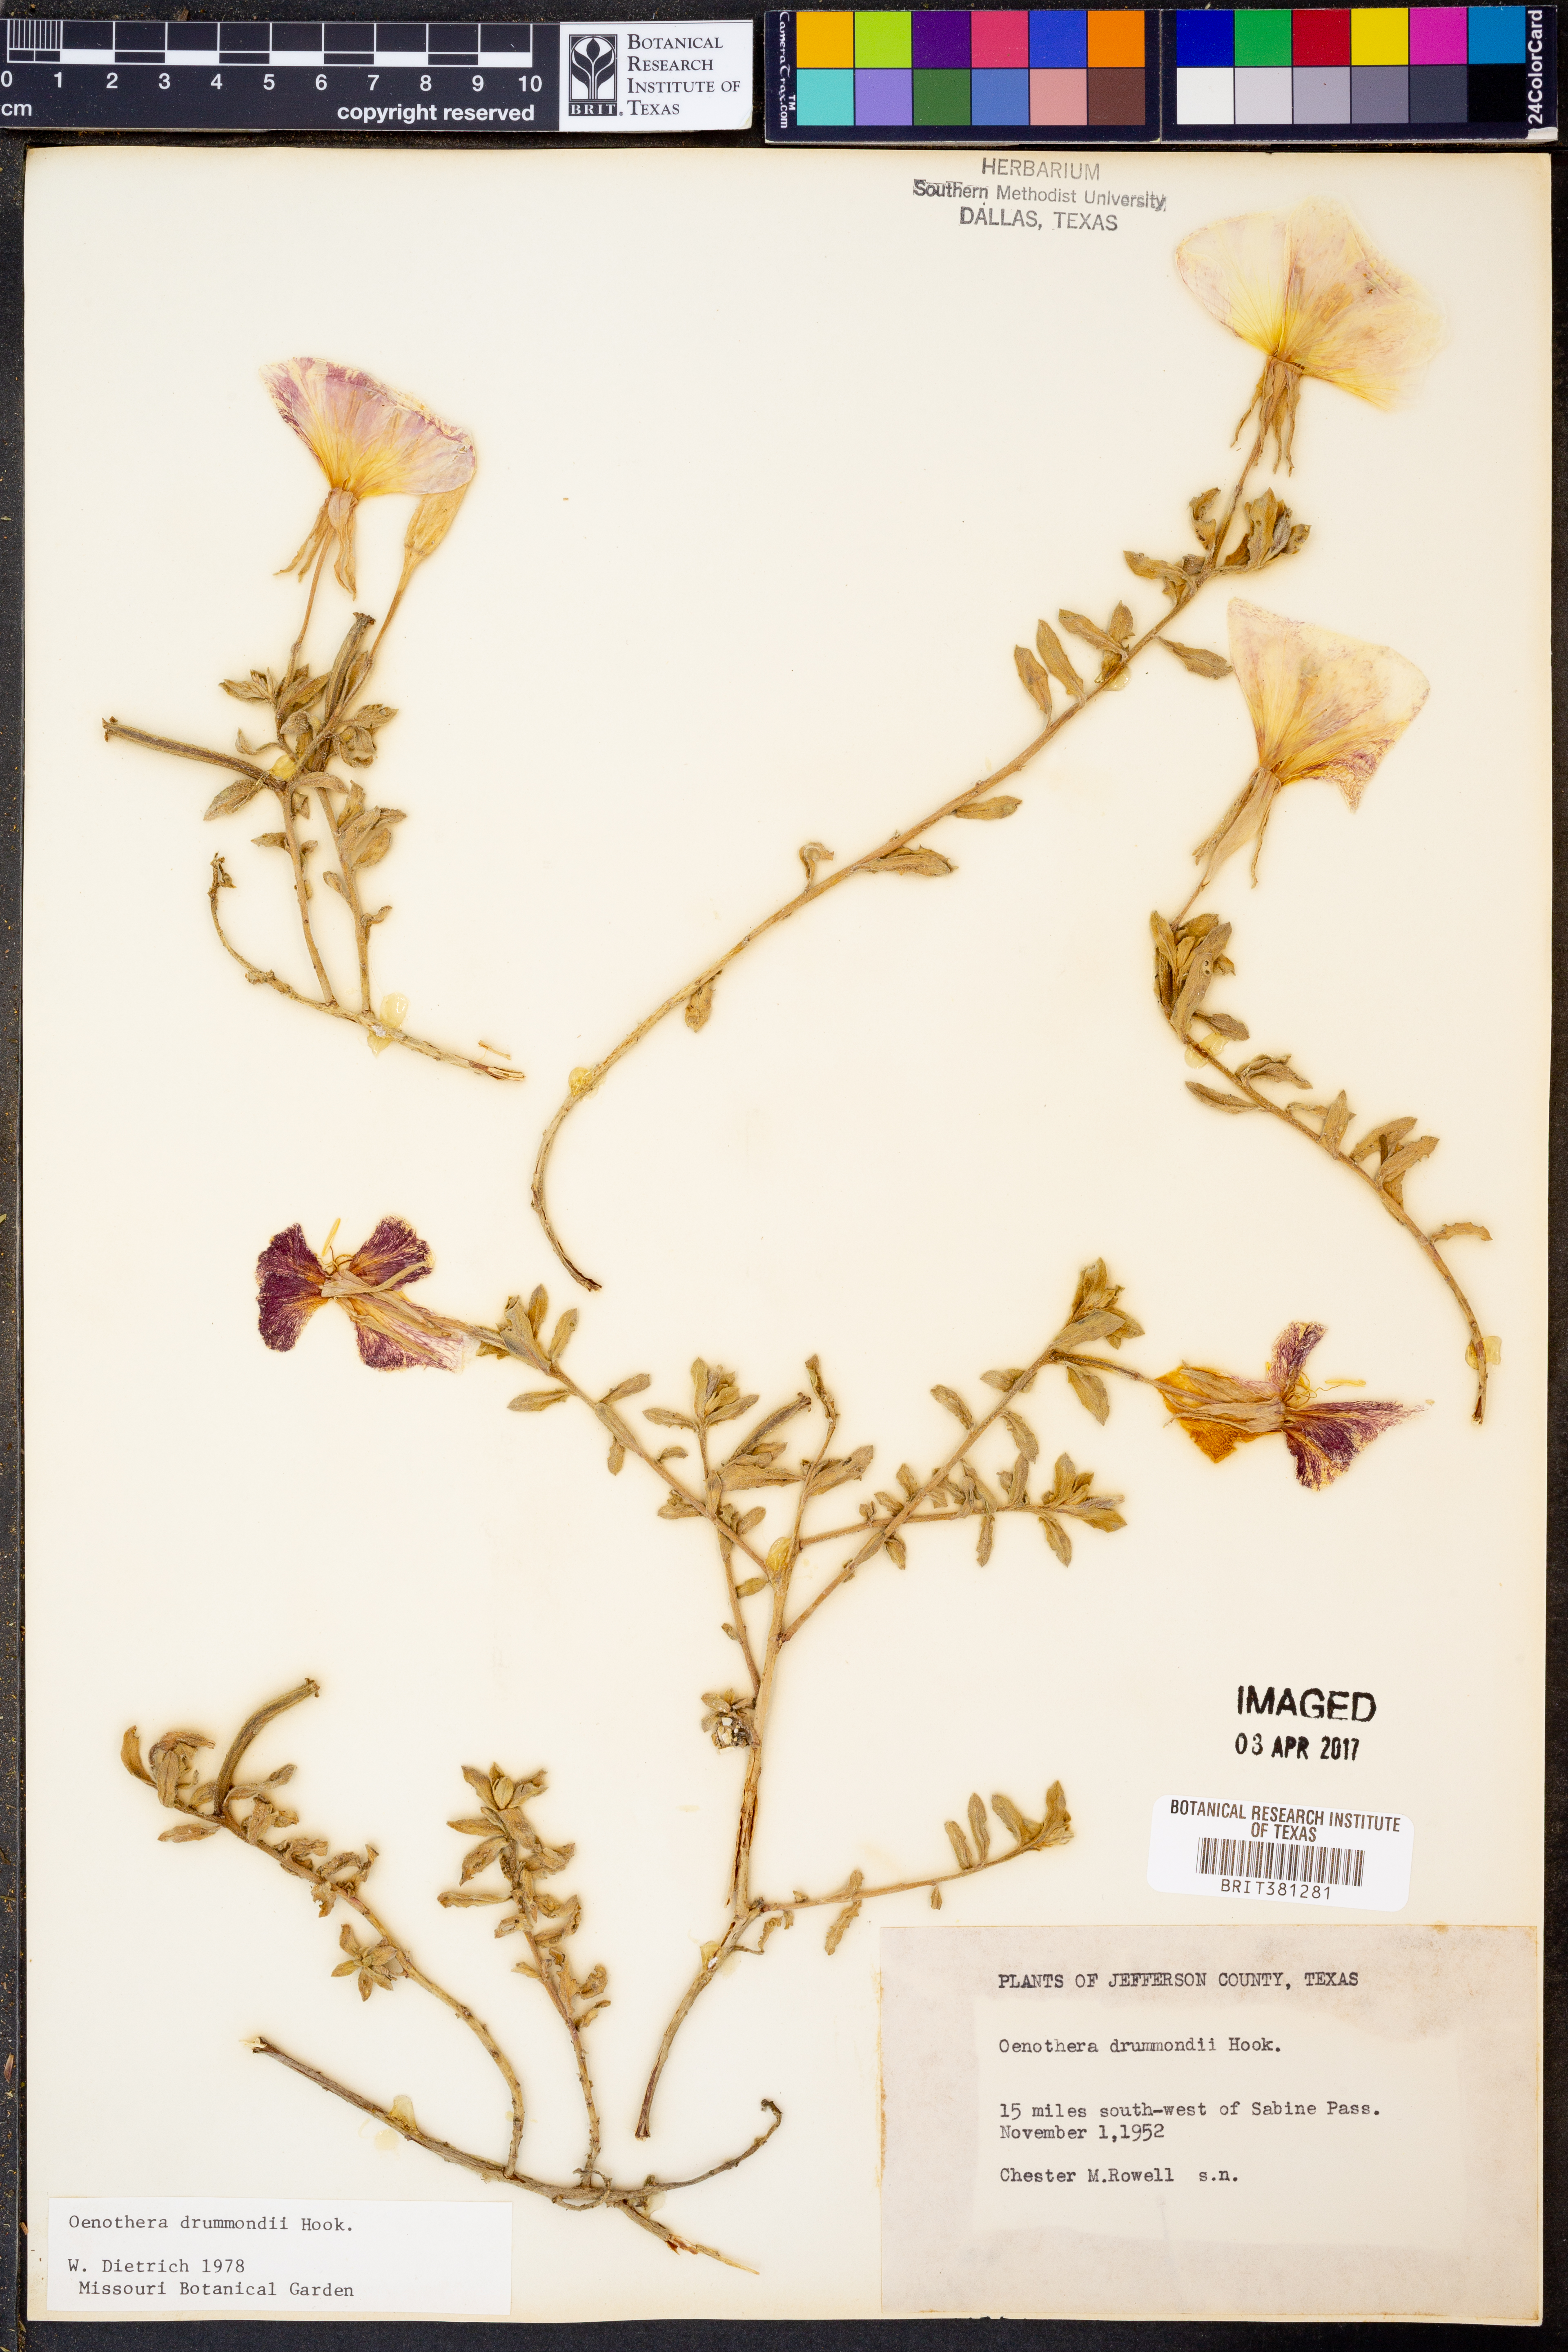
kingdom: Plantae
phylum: Tracheophyta
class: Magnoliopsida
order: Myrtales
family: Onagraceae
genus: Oenothera
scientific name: Oenothera drummondii
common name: Beach evening-primrose
